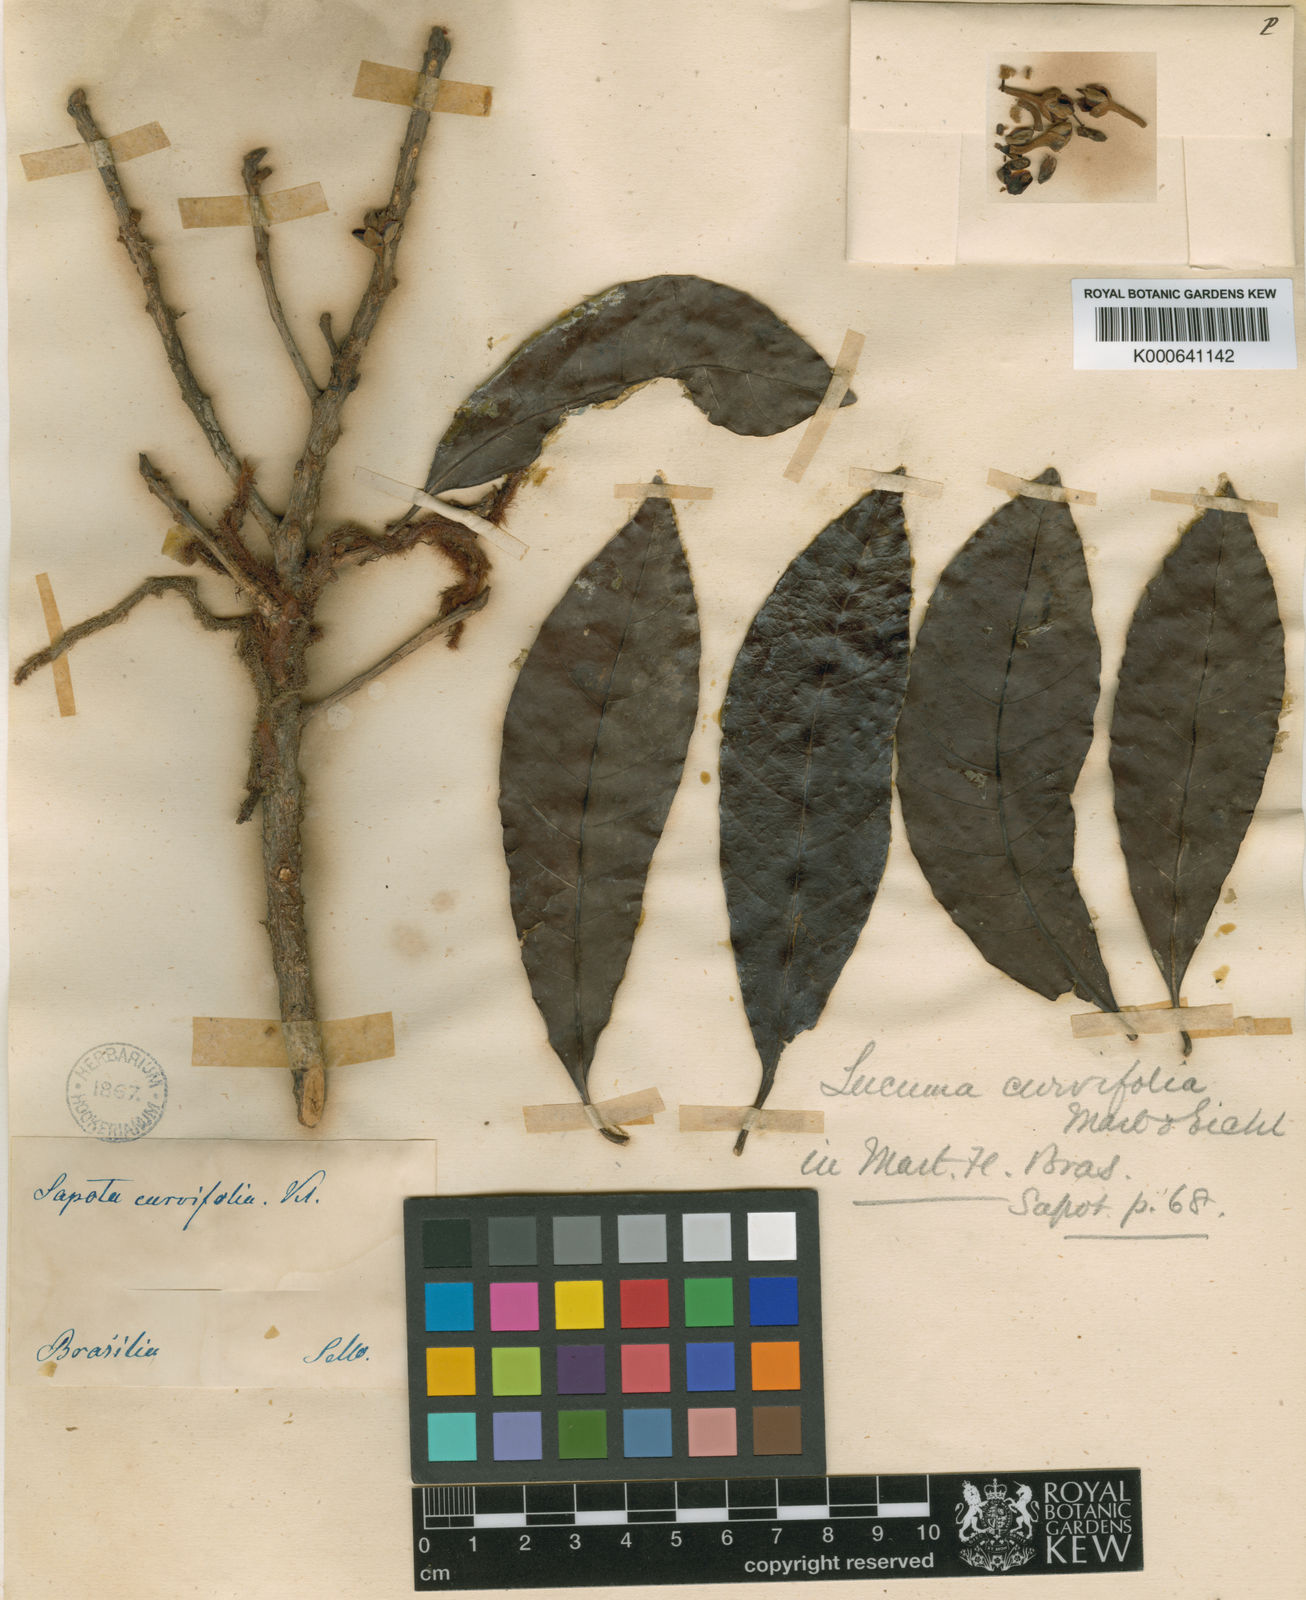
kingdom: Plantae
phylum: Tracheophyta
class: Magnoliopsida
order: Ericales
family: Sapotaceae
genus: Pouteria
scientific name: Pouteria venosa
